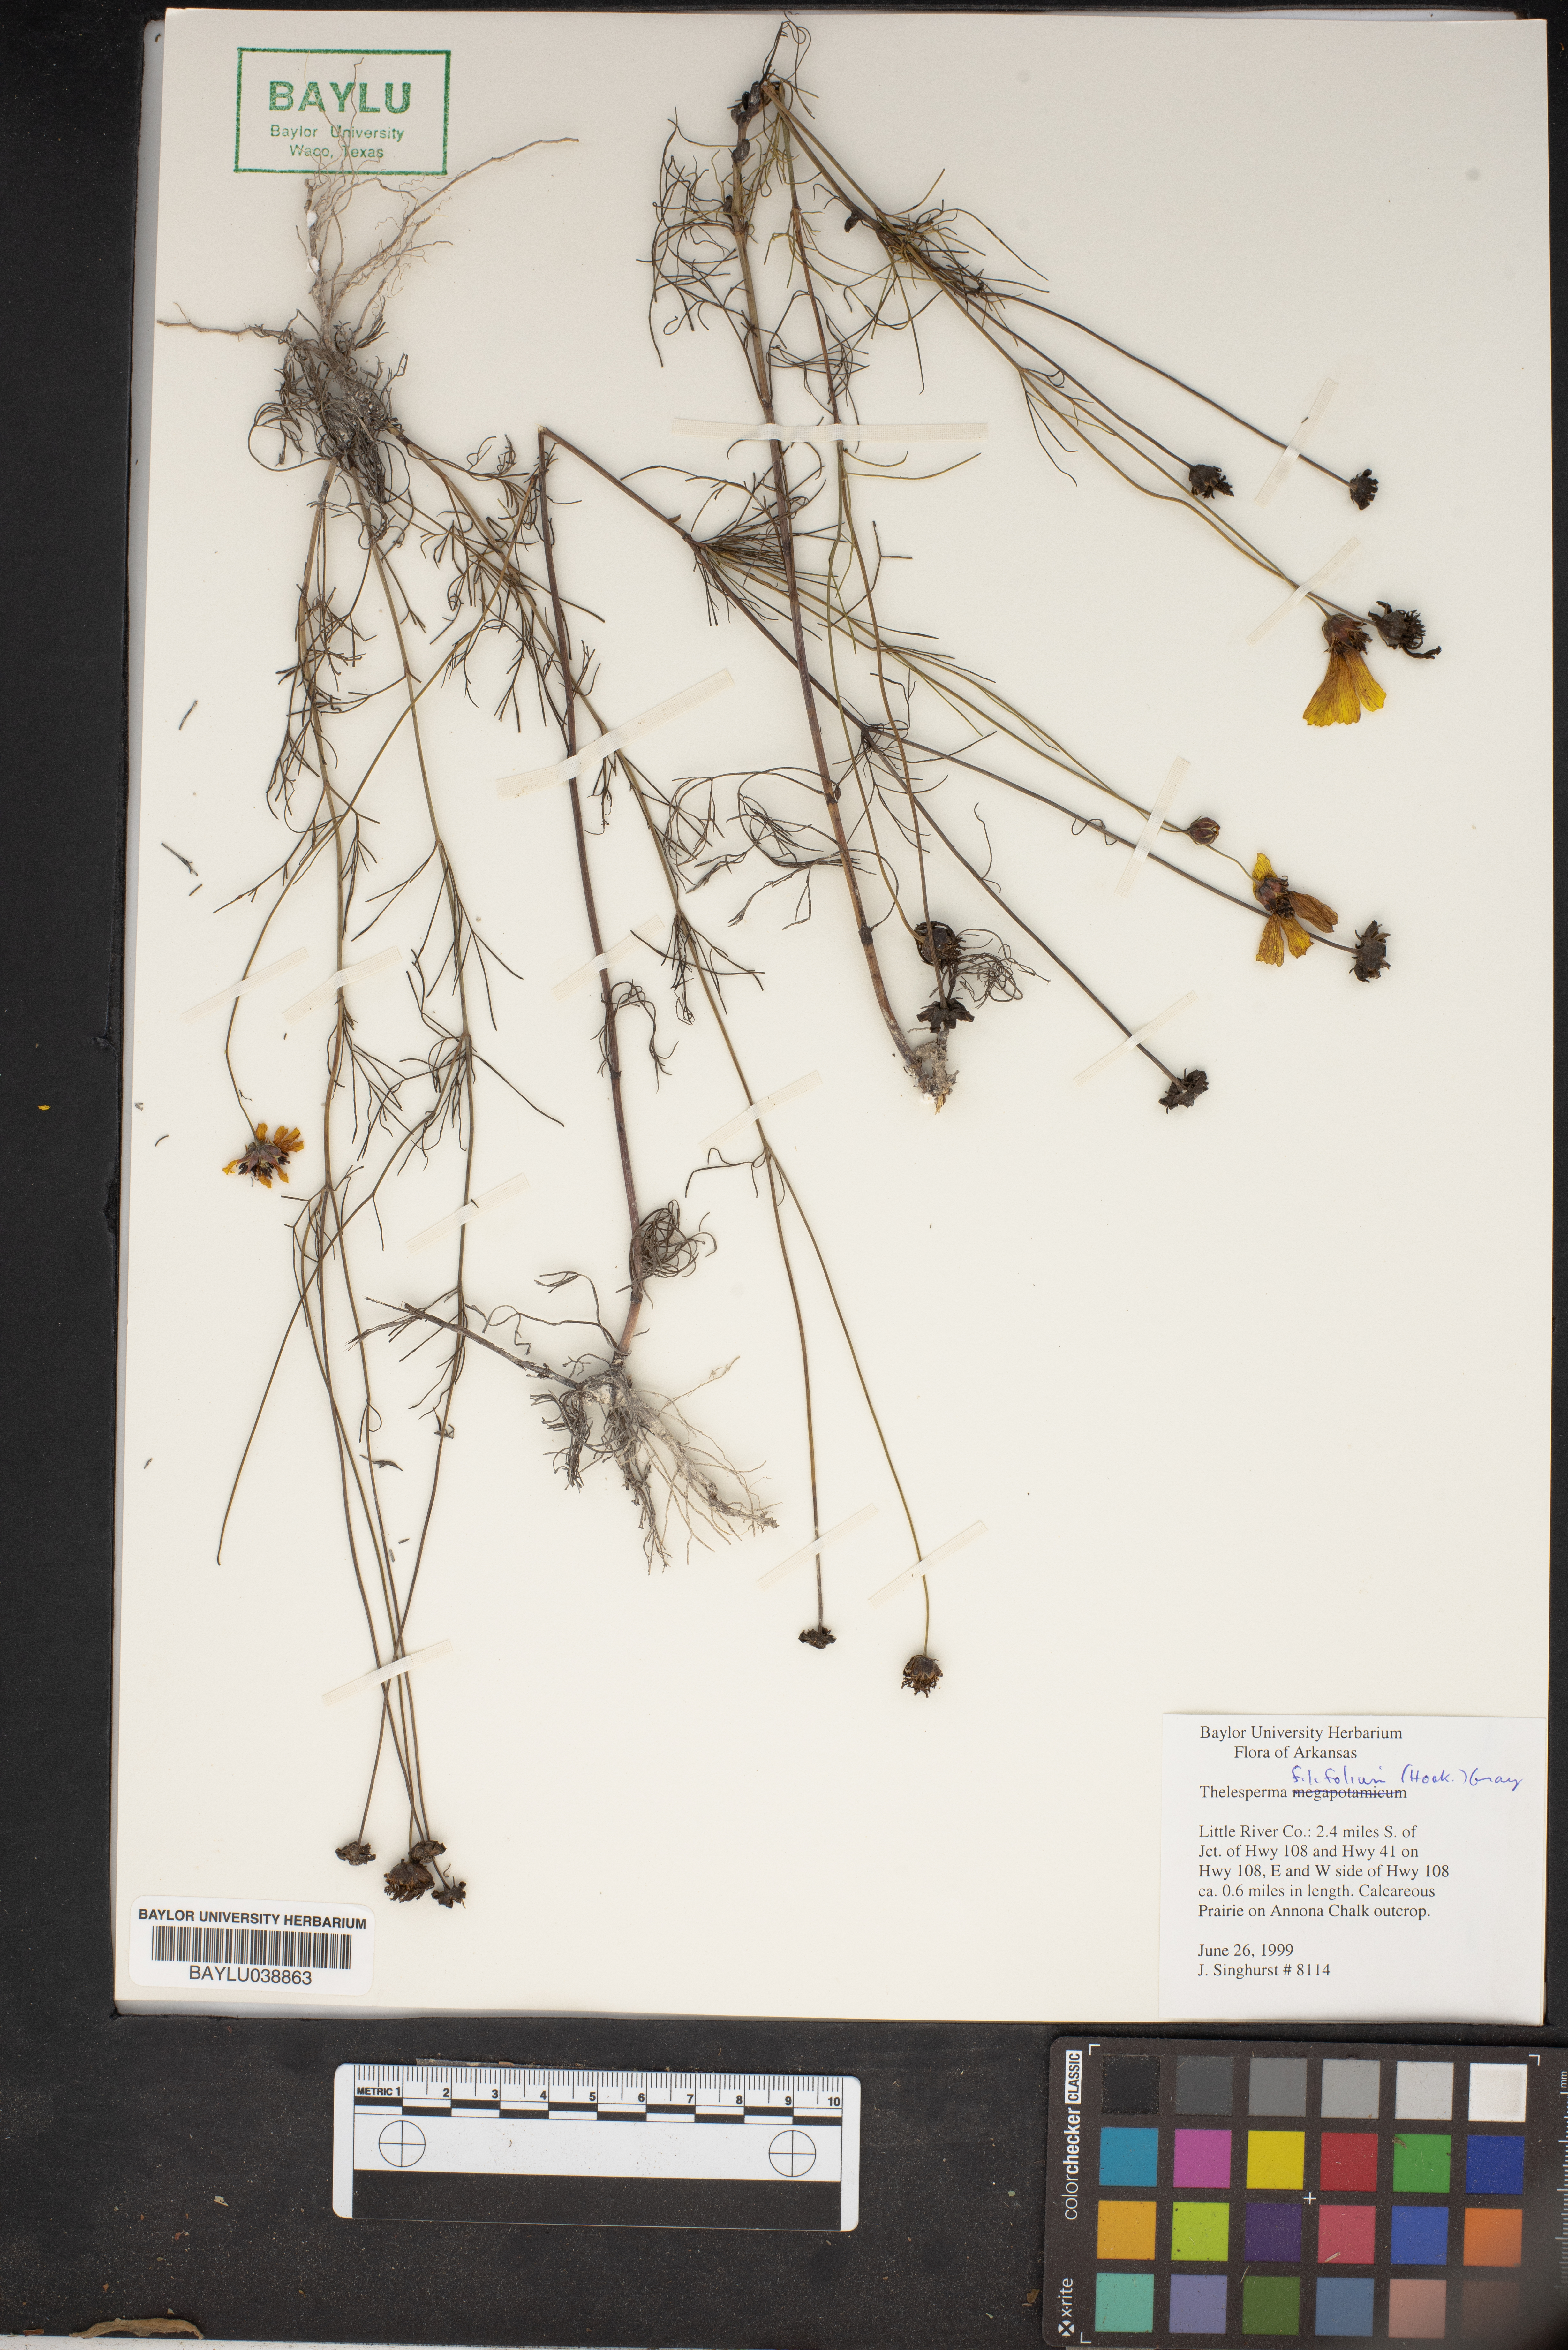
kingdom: Plantae
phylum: Tracheophyta
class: Magnoliopsida
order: Asterales
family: Asteraceae
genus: Thelesperma
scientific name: Thelesperma filifolium
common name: Stiff greenthread
